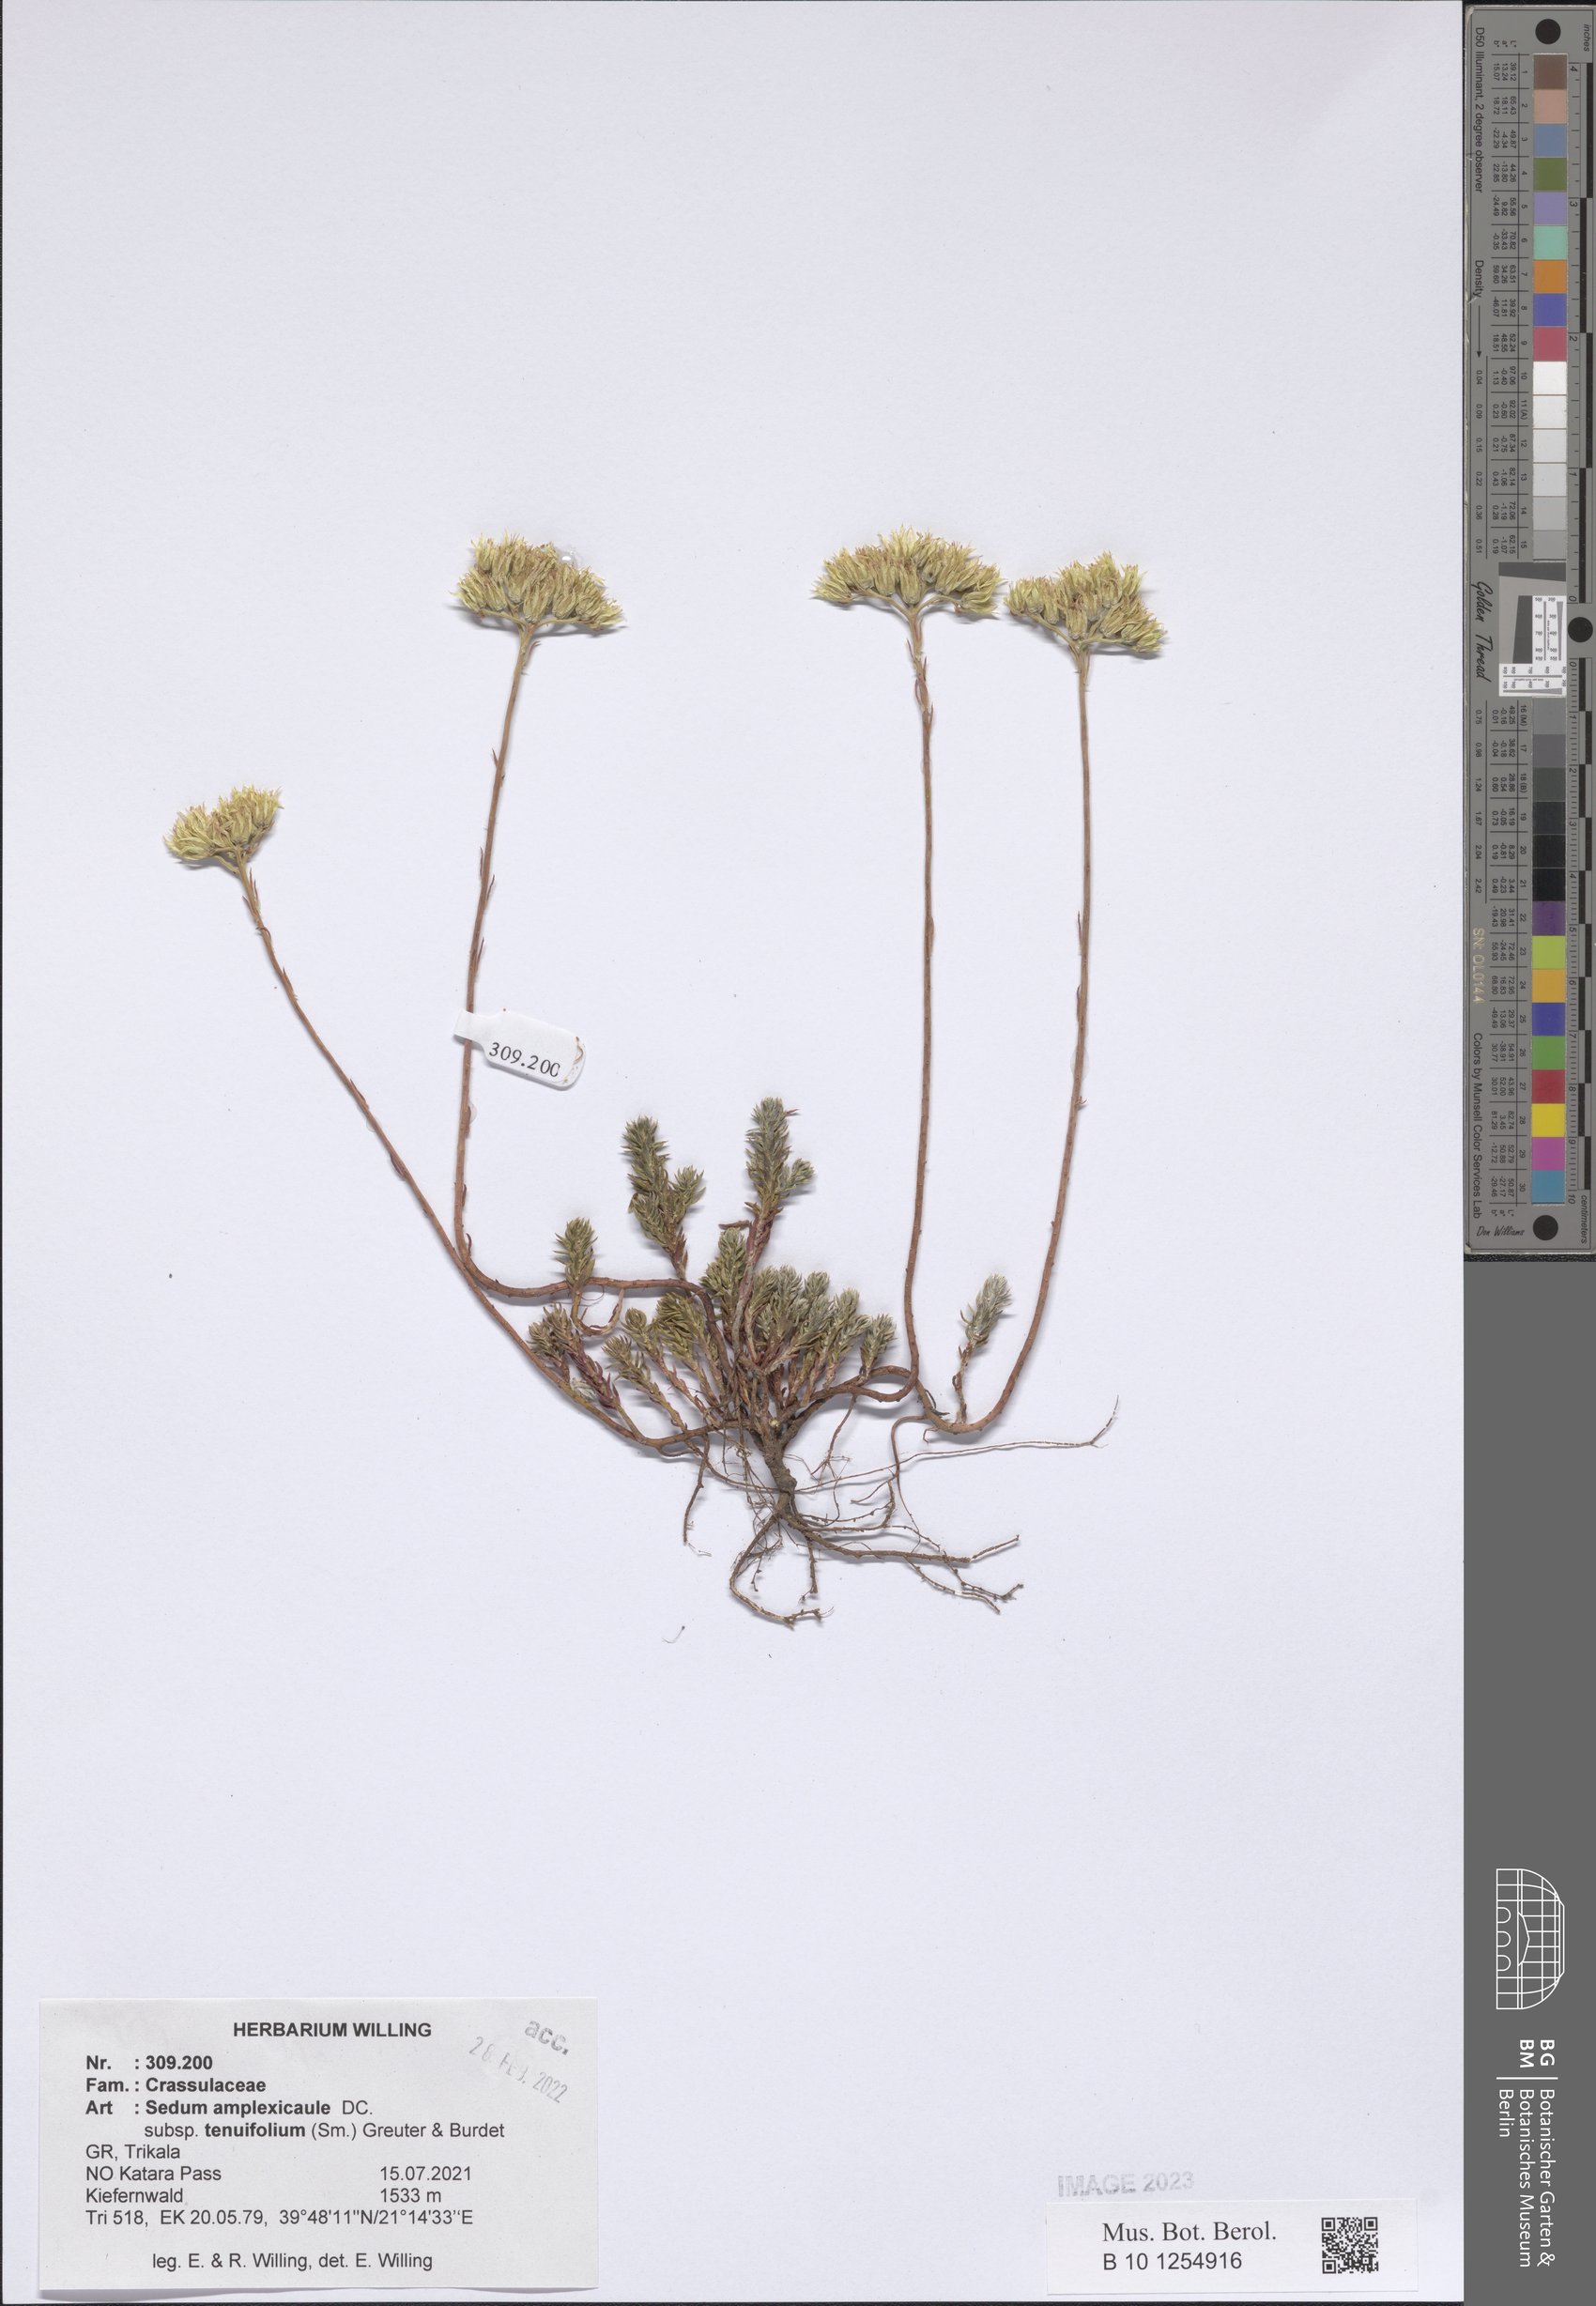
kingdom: Plantae
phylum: Tracheophyta
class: Magnoliopsida
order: Saxifragales
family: Crassulaceae
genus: Petrosedum
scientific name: Petrosedum tenuifolium
